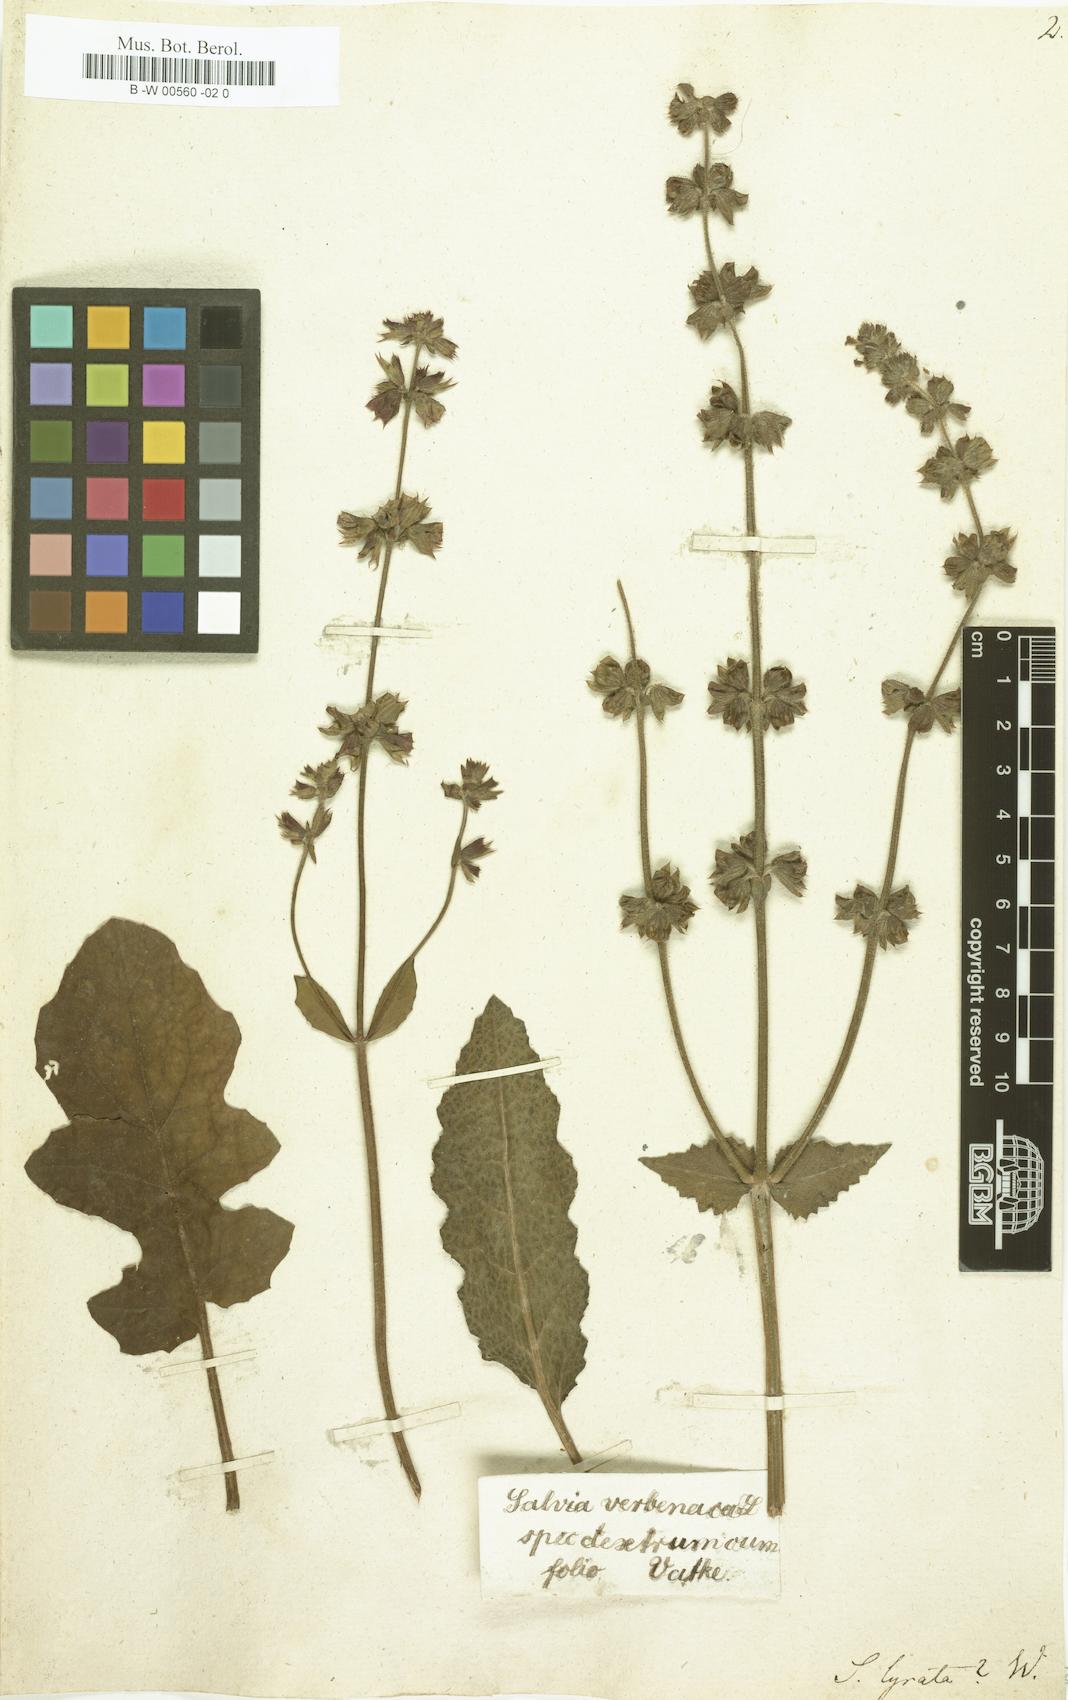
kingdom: Plantae
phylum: Tracheophyta
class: Magnoliopsida
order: Lamiales
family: Lamiaceae
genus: Salvia
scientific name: Salvia lyrata
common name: Cancerweed
